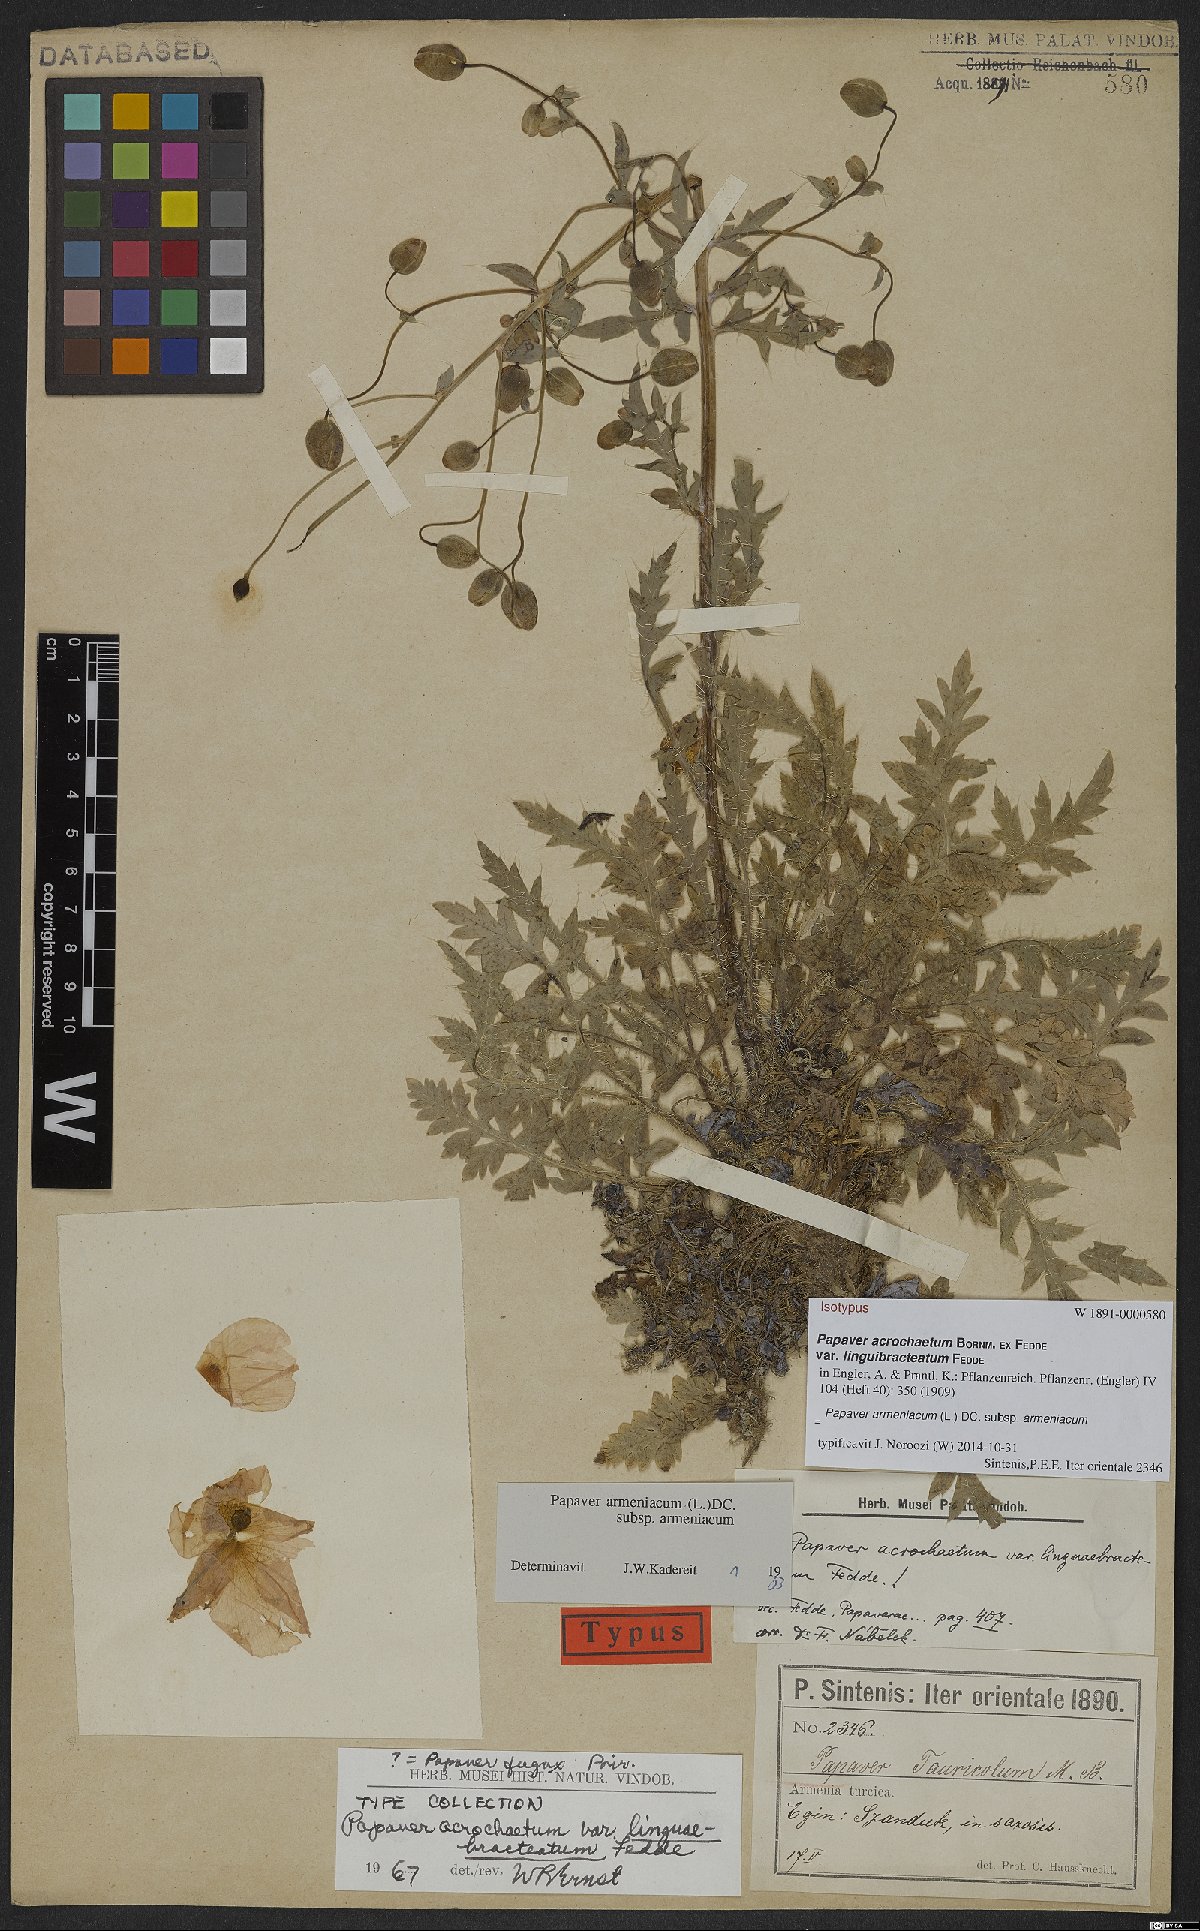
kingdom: Plantae
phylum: Tracheophyta
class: Magnoliopsida
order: Ranunculales
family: Papaveraceae
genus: Papaver
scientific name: Papaver armeniacum
